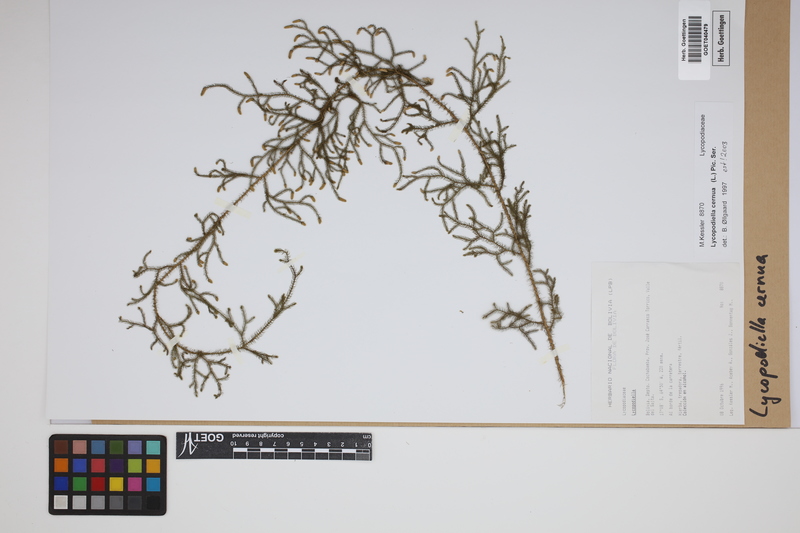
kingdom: Plantae
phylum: Tracheophyta
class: Lycopodiopsida
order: Lycopodiales
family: Lycopodiaceae
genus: Palhinhaea
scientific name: Palhinhaea cernua
